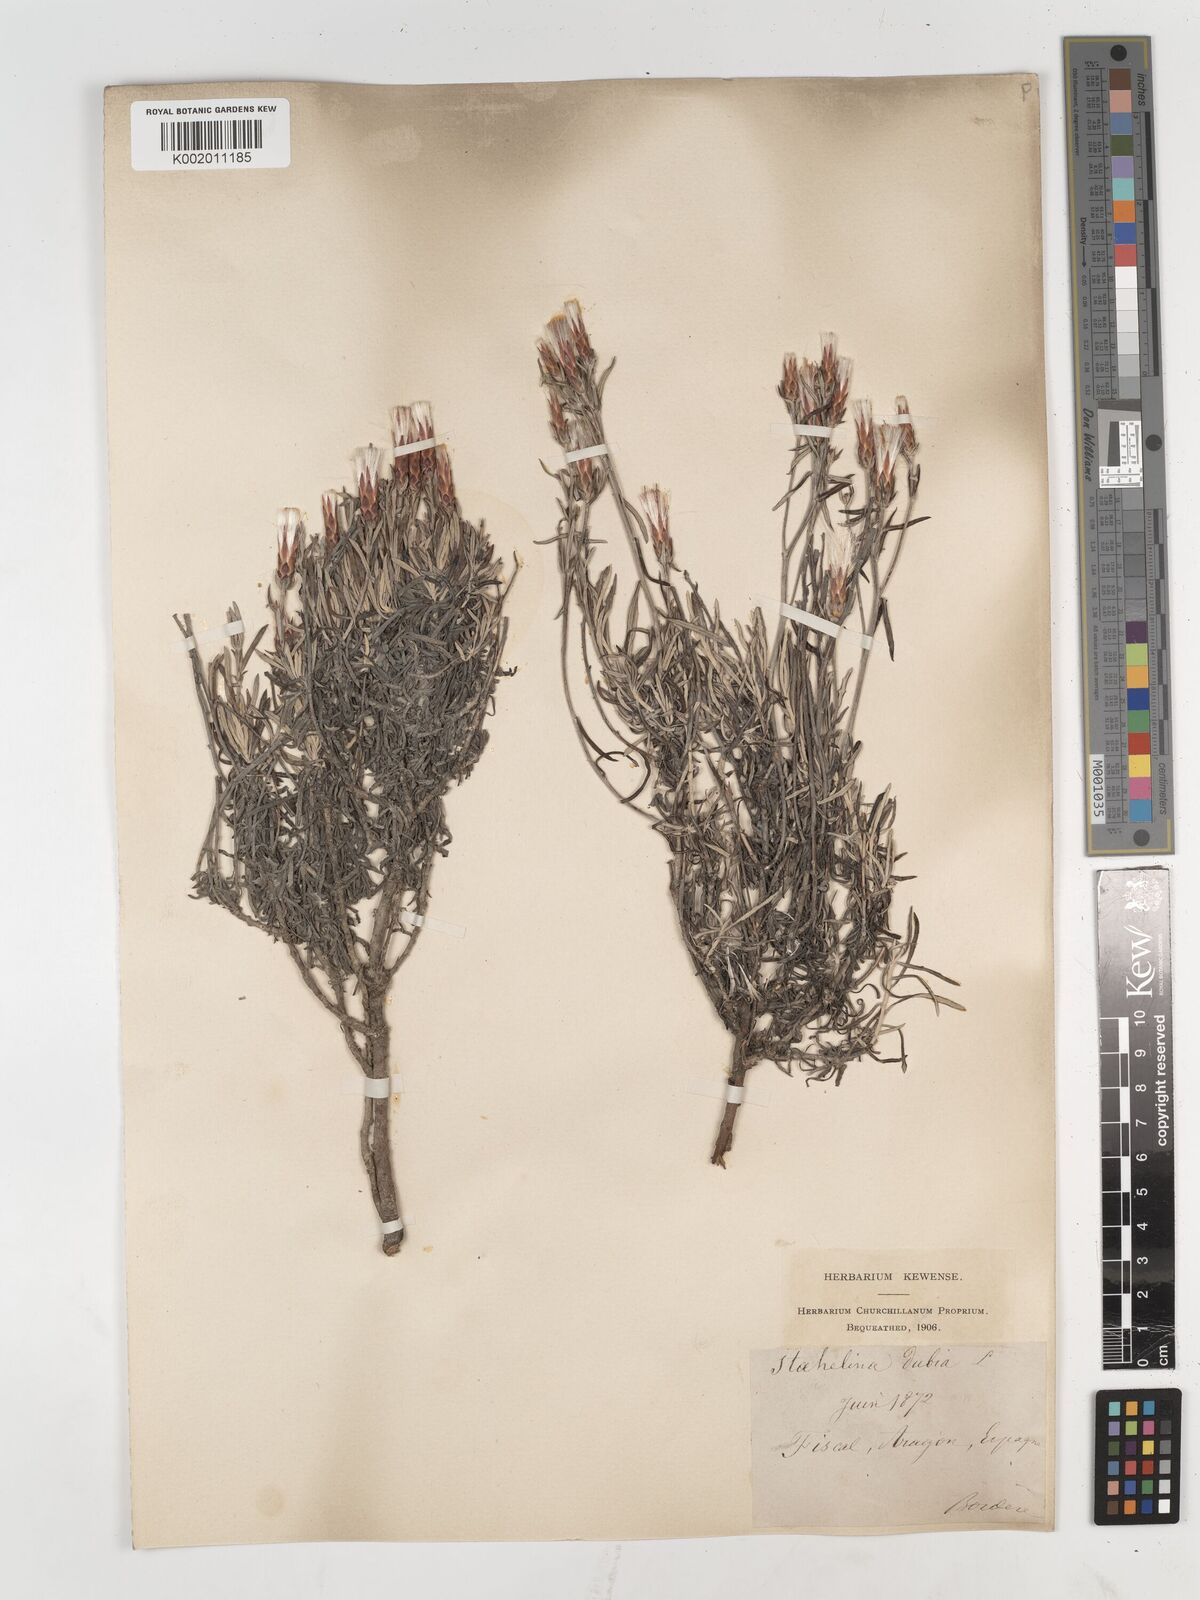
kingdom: Plantae
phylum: Tracheophyta
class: Magnoliopsida
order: Asterales
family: Asteraceae
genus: Staehelina
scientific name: Staehelina dubia
